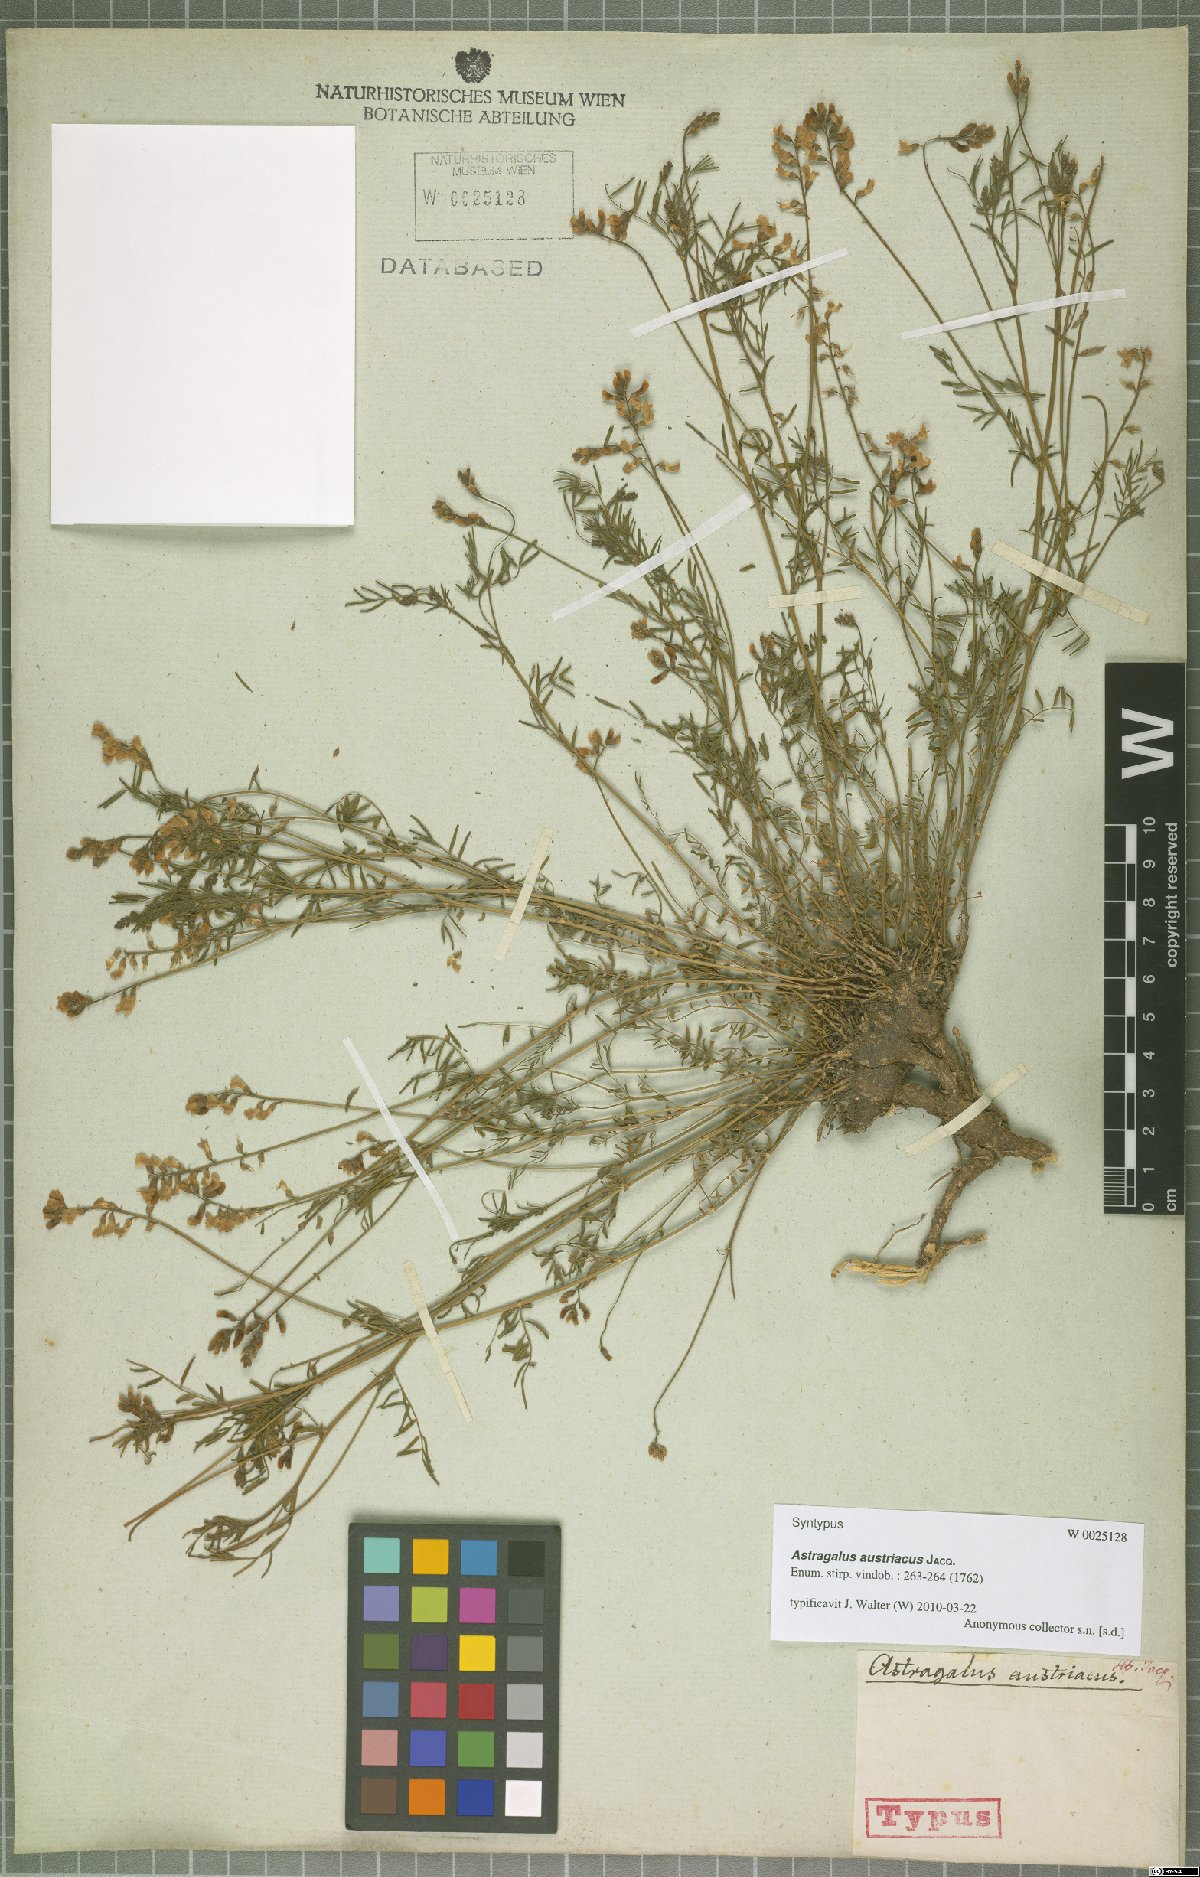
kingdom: Plantae
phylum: Tracheophyta
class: Magnoliopsida
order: Fabales
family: Fabaceae
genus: Astragalus
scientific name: Astragalus austriacus
